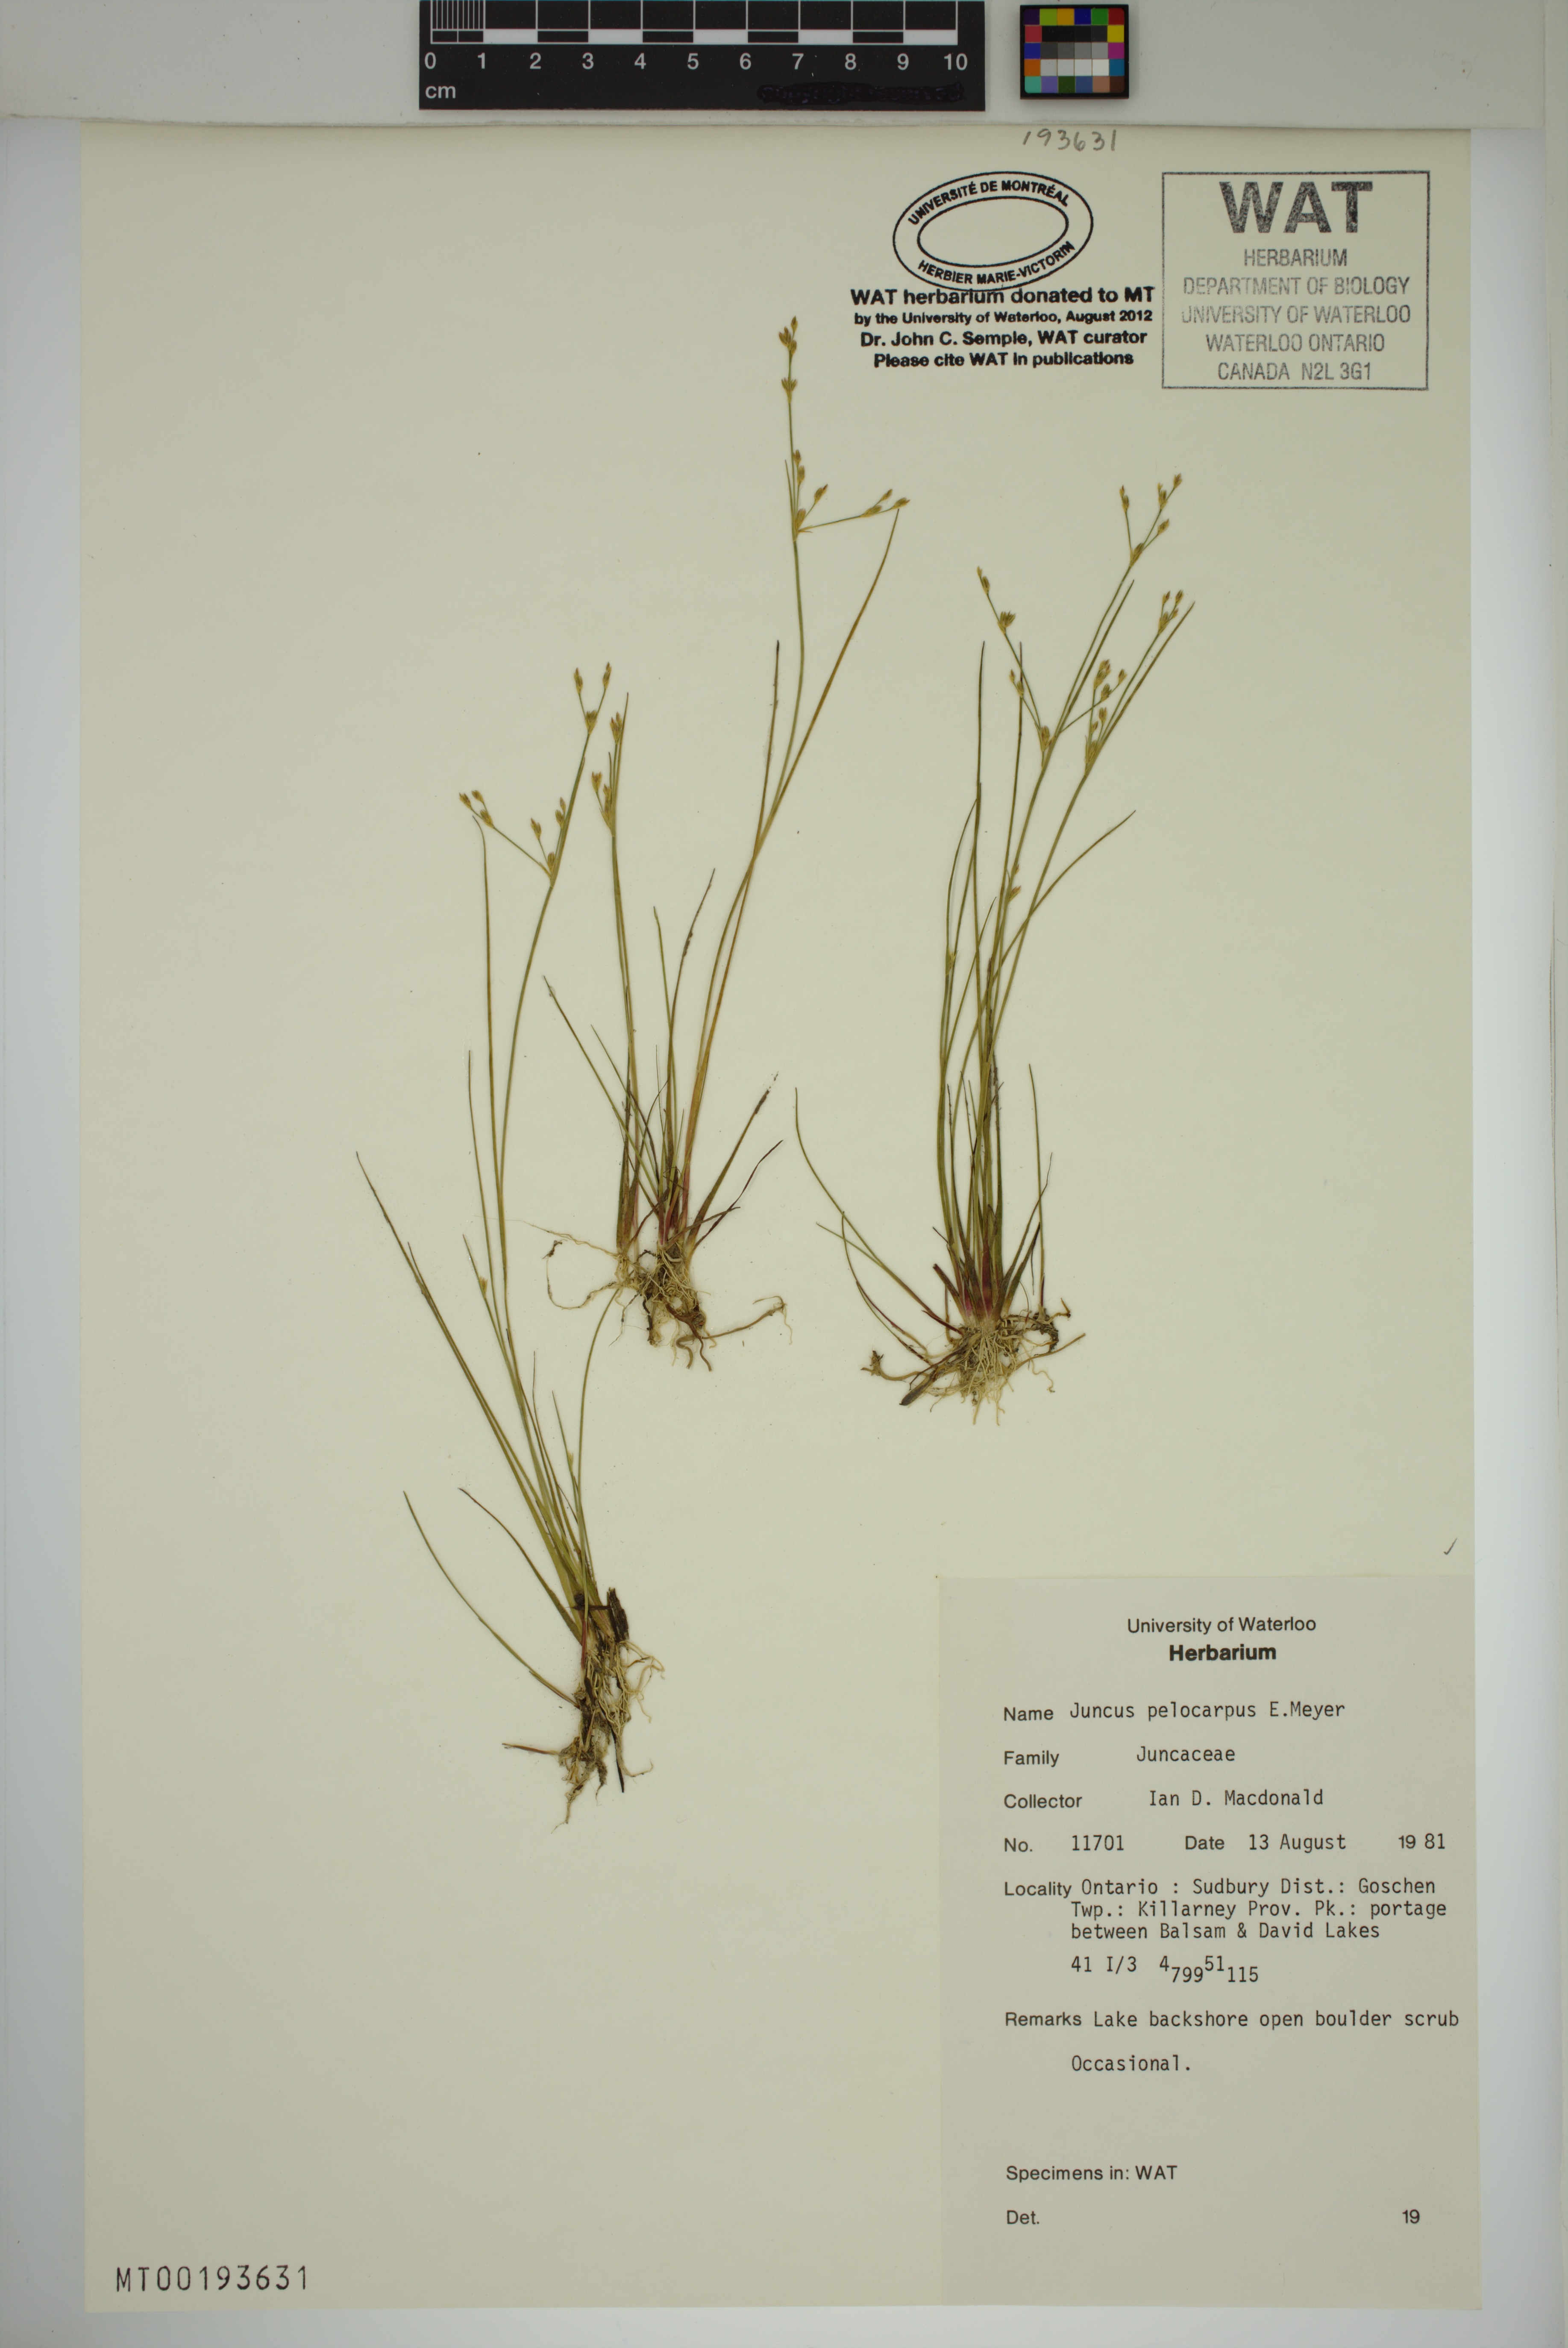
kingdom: Plantae
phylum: Tracheophyta
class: Liliopsida
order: Poales
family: Juncaceae
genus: Juncus
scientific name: Juncus pelocarpus
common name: Brown-fruited rush
